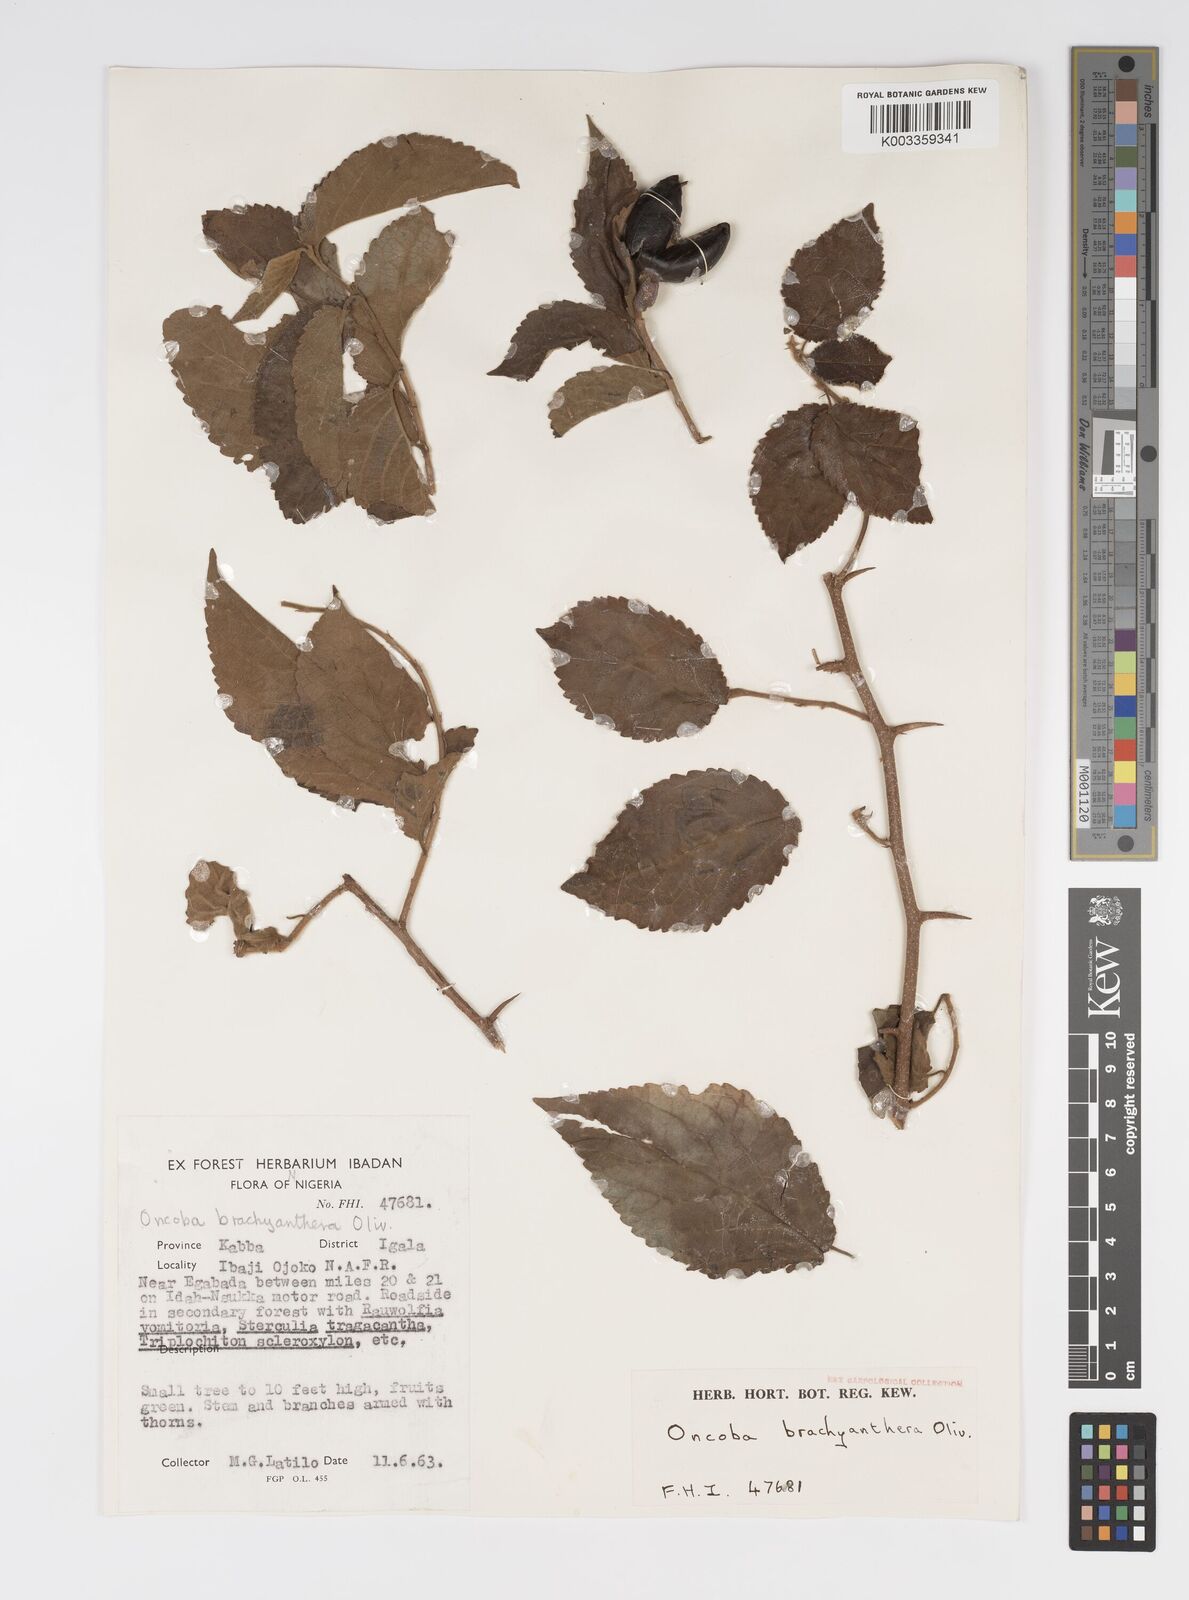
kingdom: Plantae
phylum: Tracheophyta
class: Magnoliopsida
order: Malpighiales
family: Salicaceae
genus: Oncoba
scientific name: Oncoba brachyanthera
